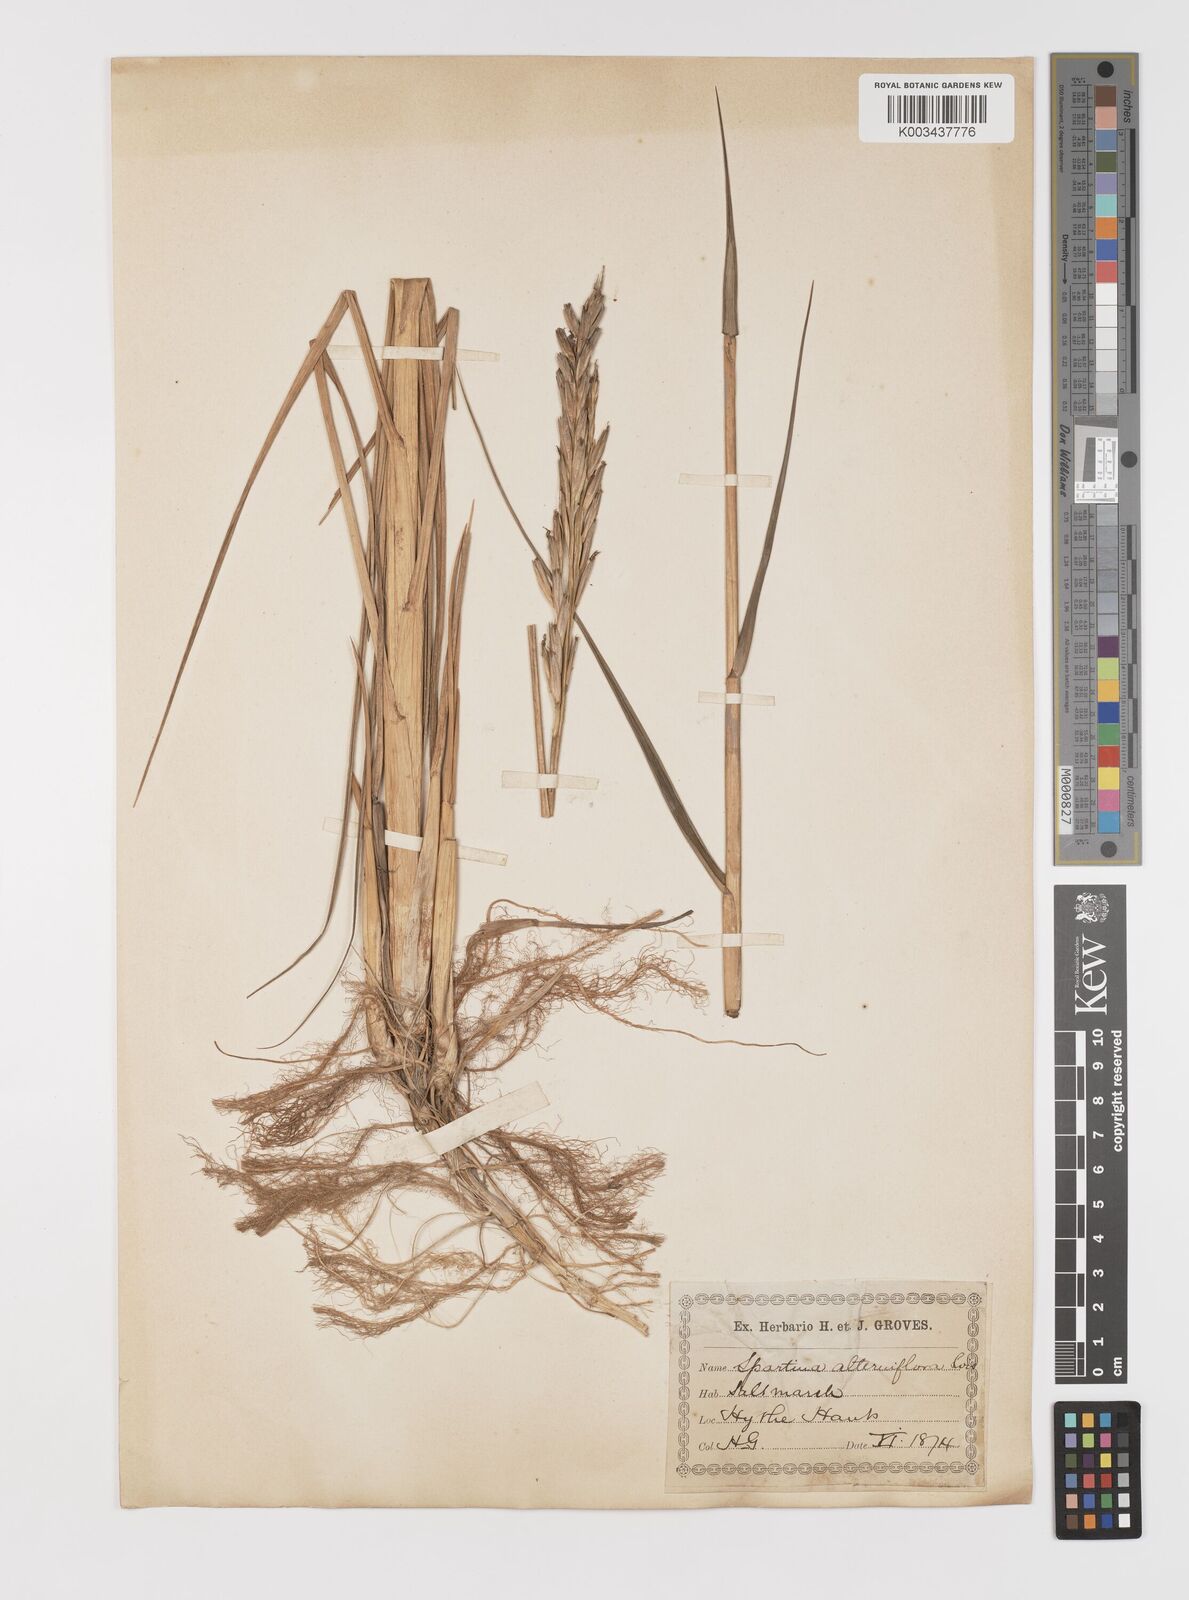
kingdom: Plantae
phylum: Tracheophyta
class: Liliopsida
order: Poales
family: Poaceae
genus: Sporobolus
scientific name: Sporobolus alterniflorus
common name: Atlantic cordgrass
